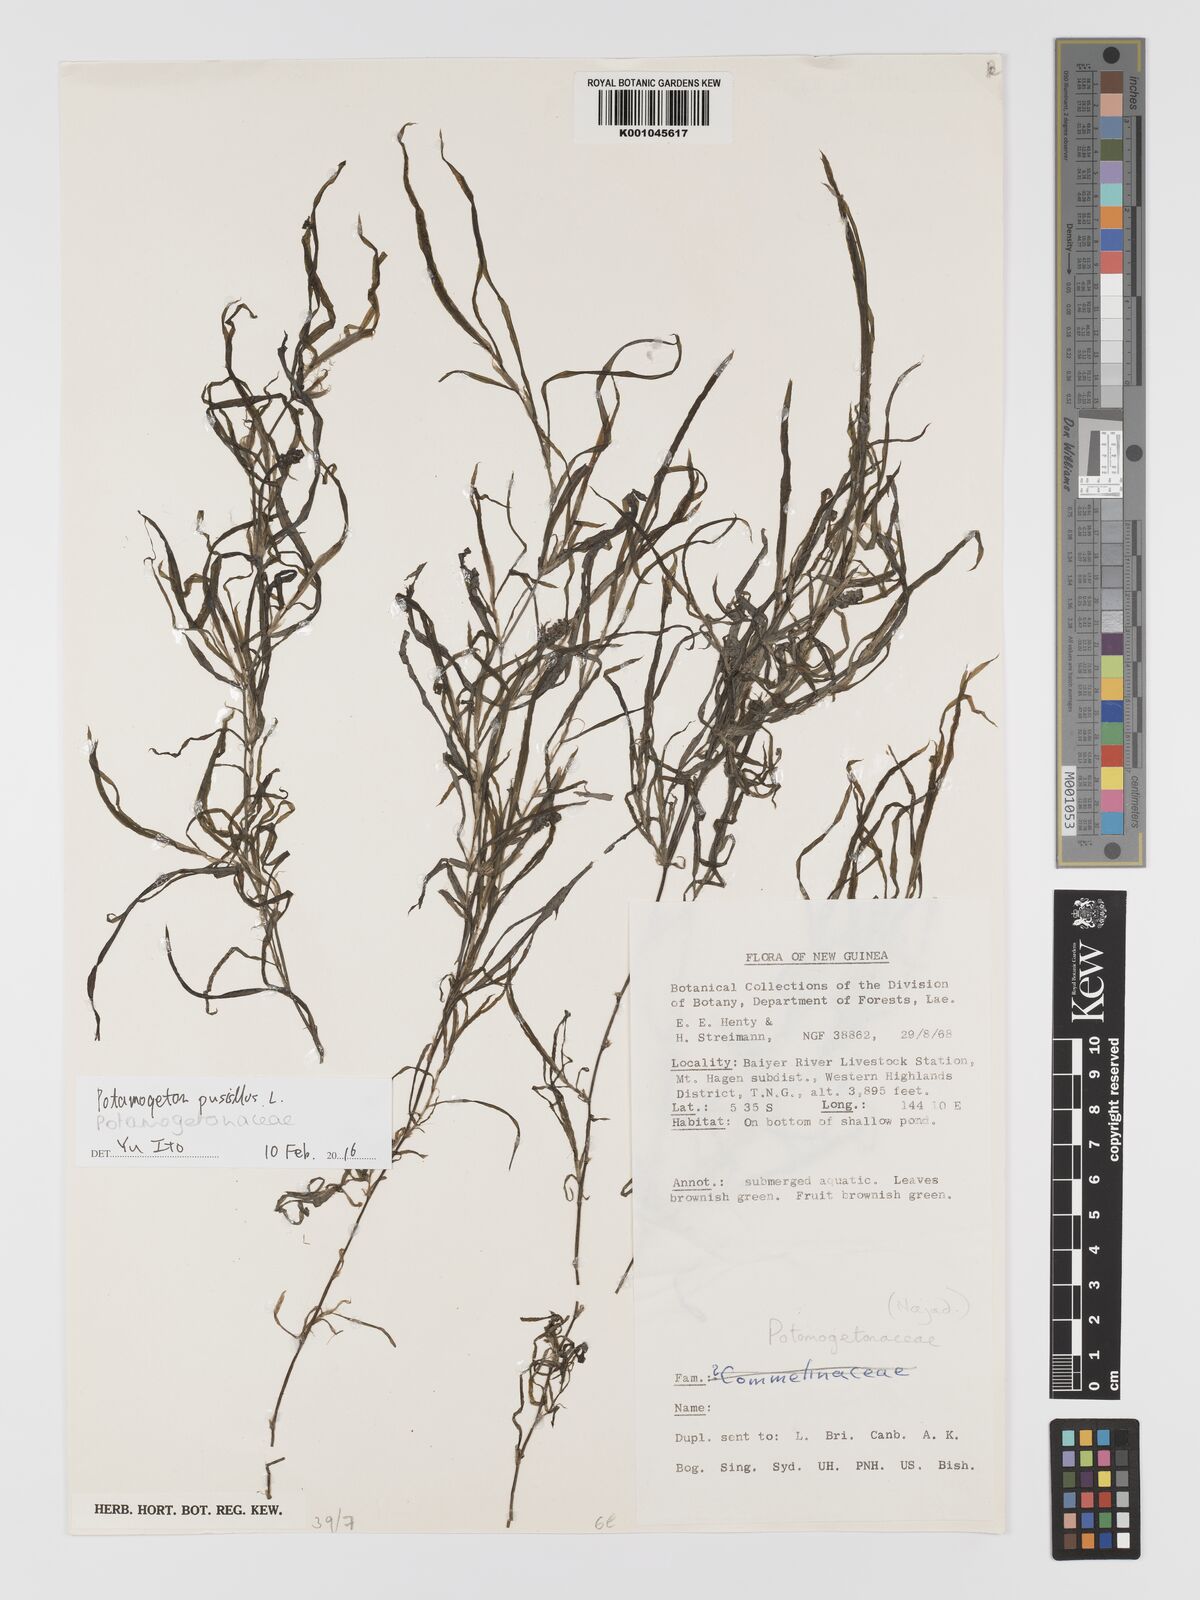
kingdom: Plantae
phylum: Tracheophyta
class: Liliopsida
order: Alismatales
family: Potamogetonaceae
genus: Potamogeton
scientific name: Potamogeton pusillus
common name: Lesser pondweed
